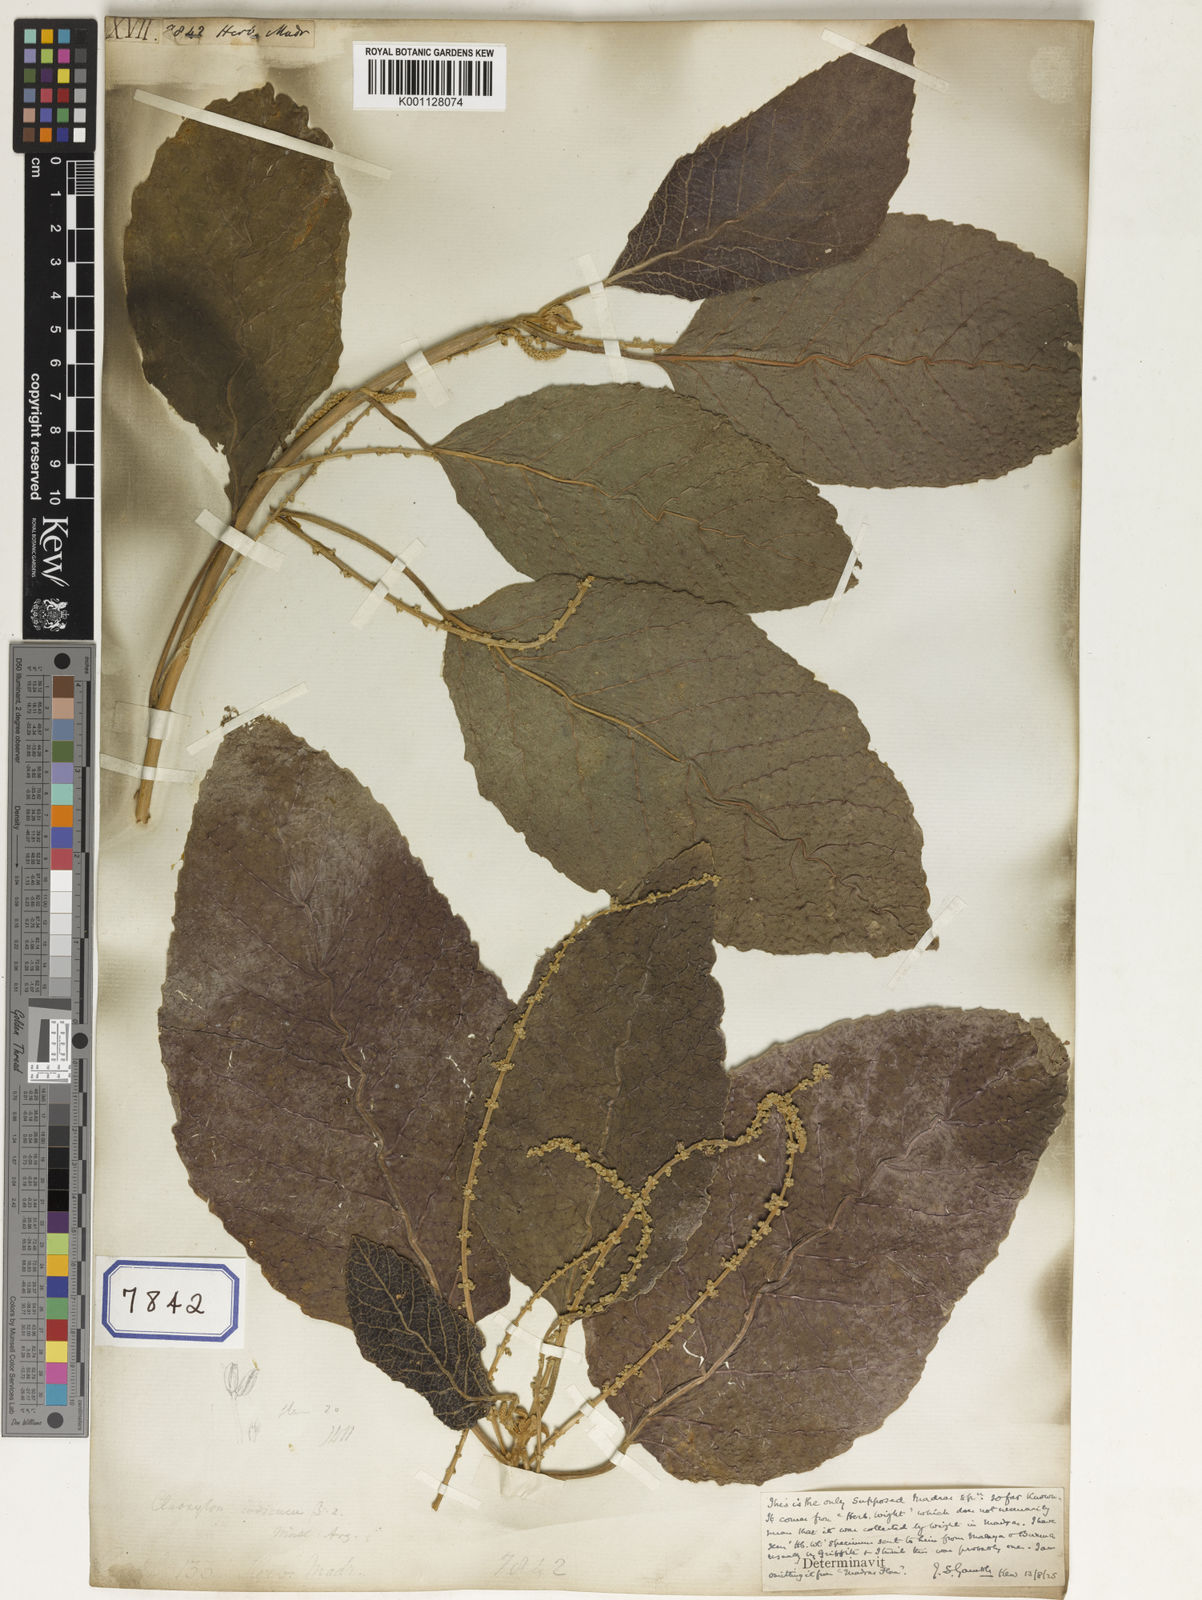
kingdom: Plantae
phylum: Tracheophyta
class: Magnoliopsida
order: Malpighiales
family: Euphorbiaceae
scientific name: Euphorbiaceae
